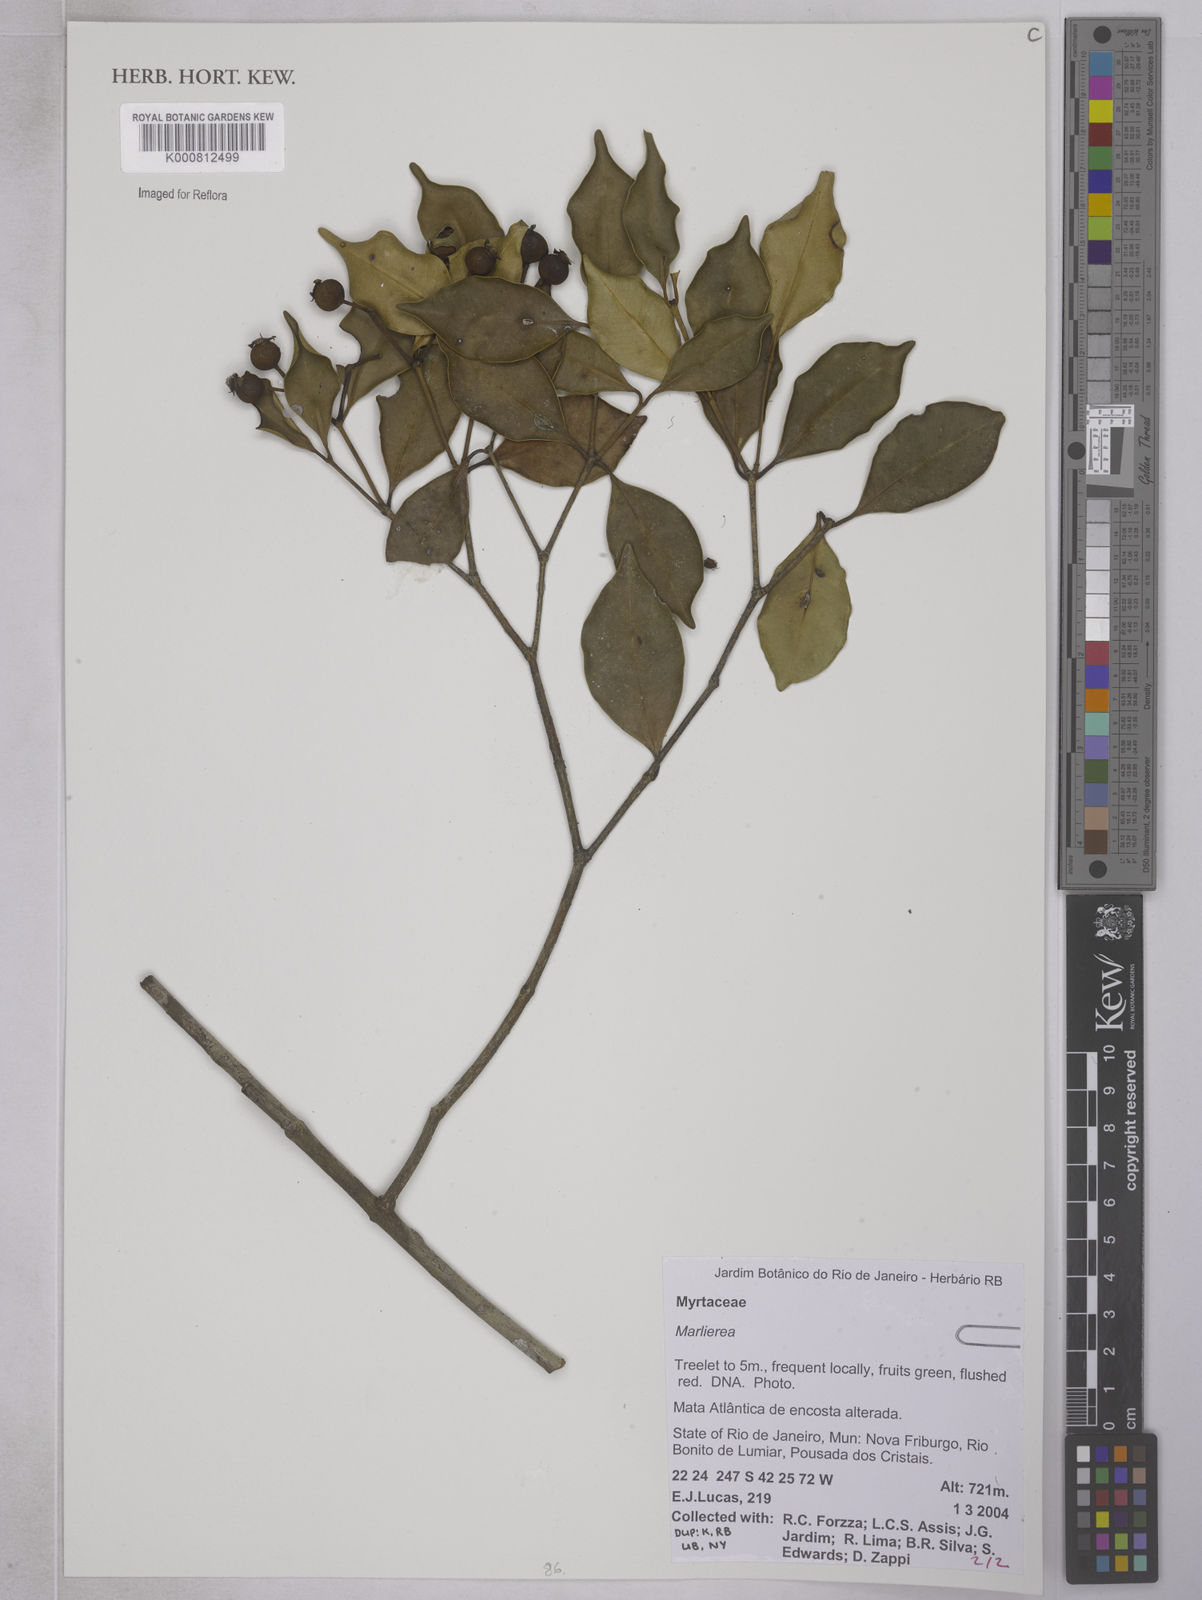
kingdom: Plantae
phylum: Tracheophyta
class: Magnoliopsida
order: Myrtales
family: Myrtaceae
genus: Marlierea
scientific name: Marlierea
